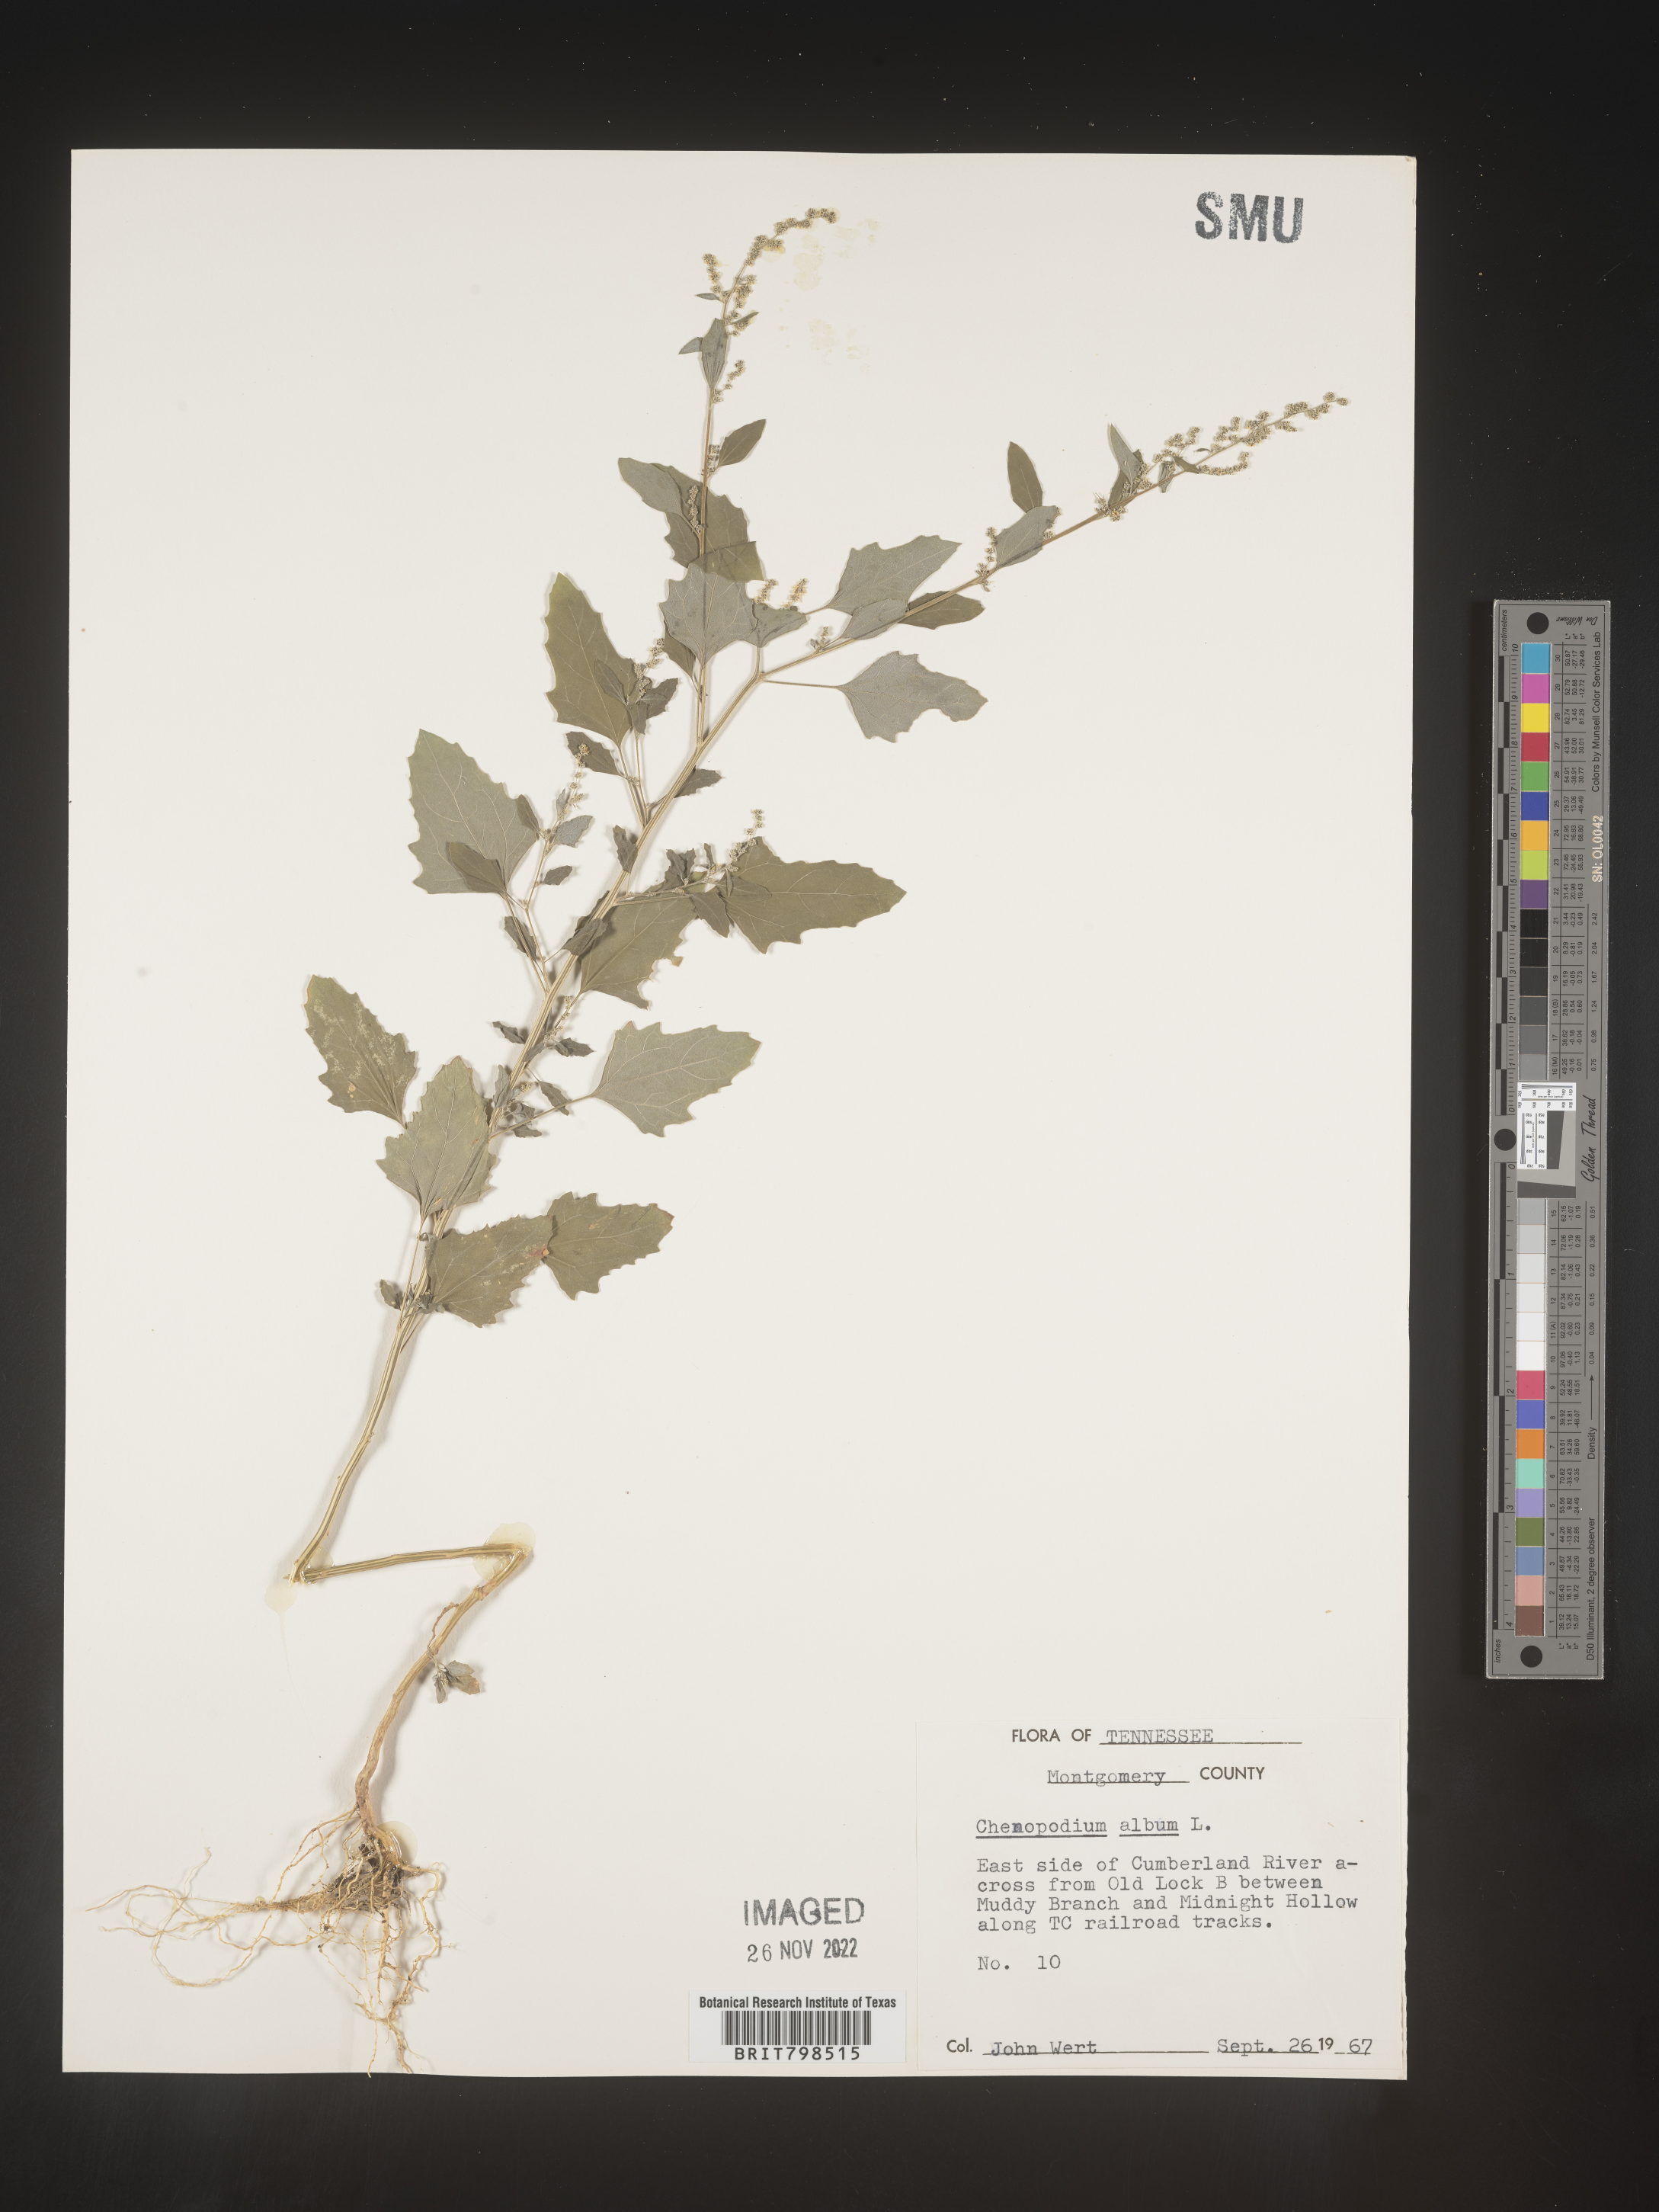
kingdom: Plantae
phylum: Tracheophyta
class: Magnoliopsida
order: Caryophyllales
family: Amaranthaceae
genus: Chenopodium
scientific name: Chenopodium album
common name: Fat-hen
